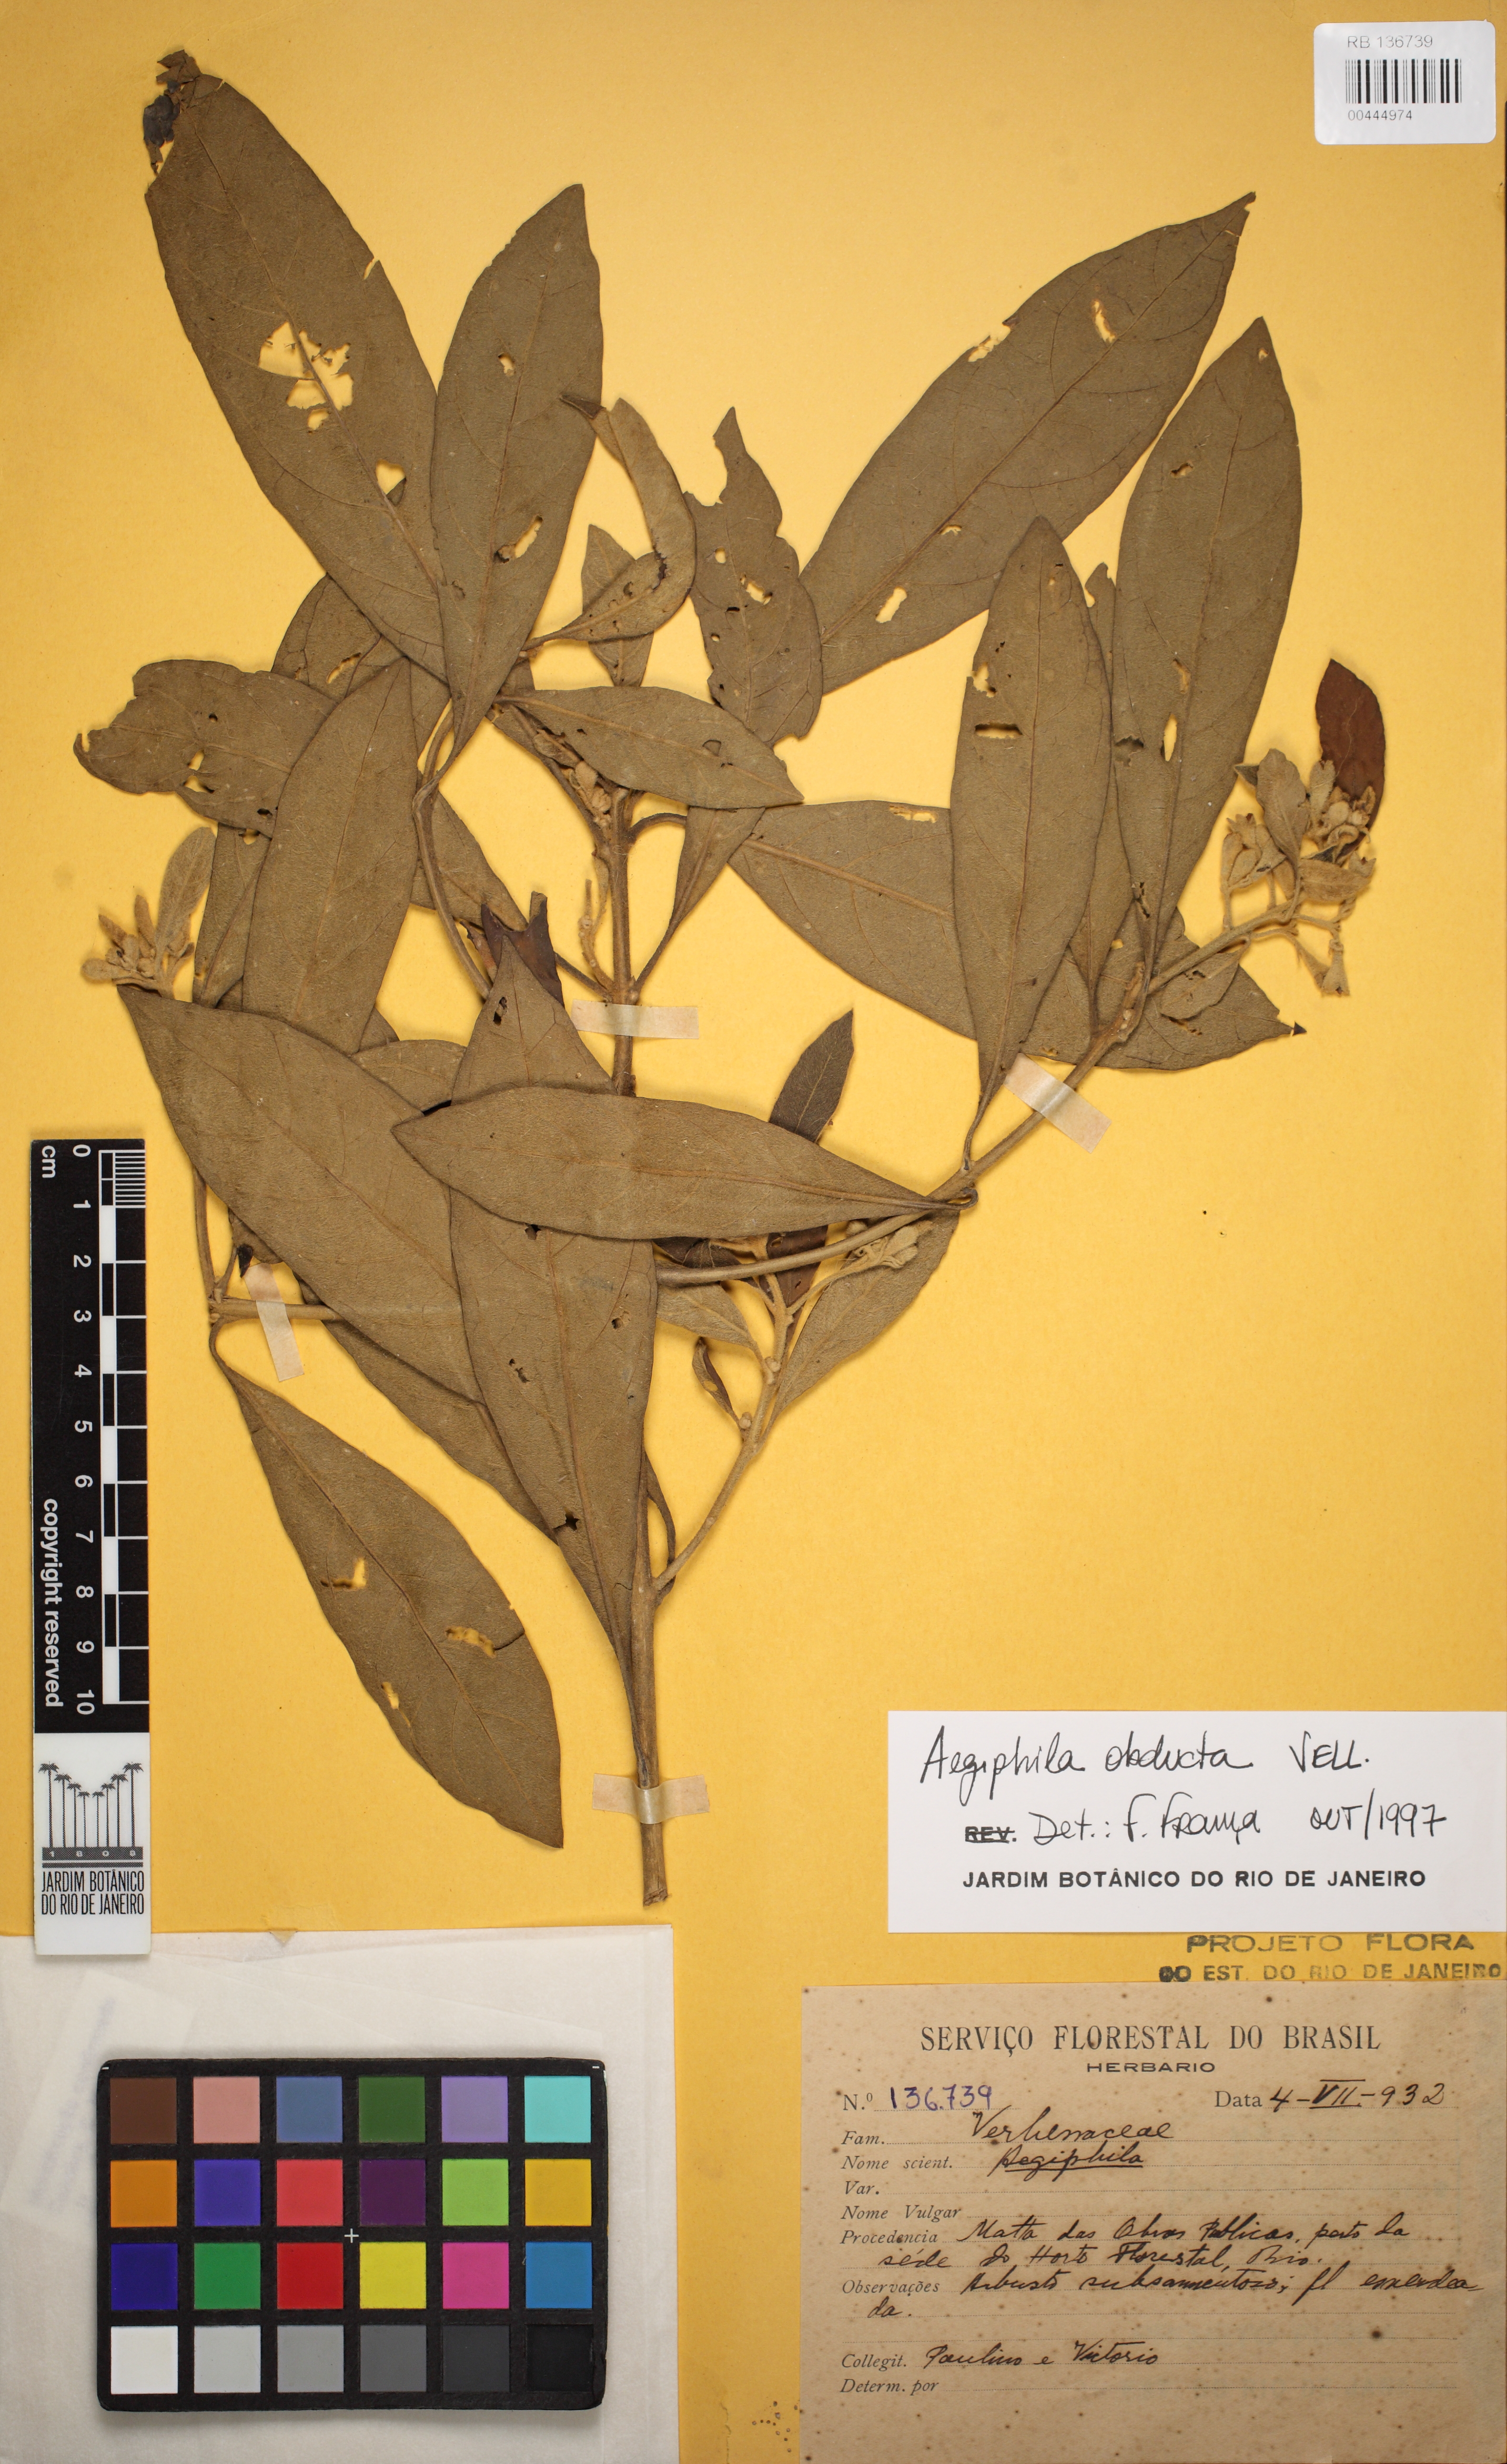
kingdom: Plantae
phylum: Tracheophyta
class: Magnoliopsida
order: Lamiales
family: Lamiaceae
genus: Aegiphila
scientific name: Aegiphila obducta
